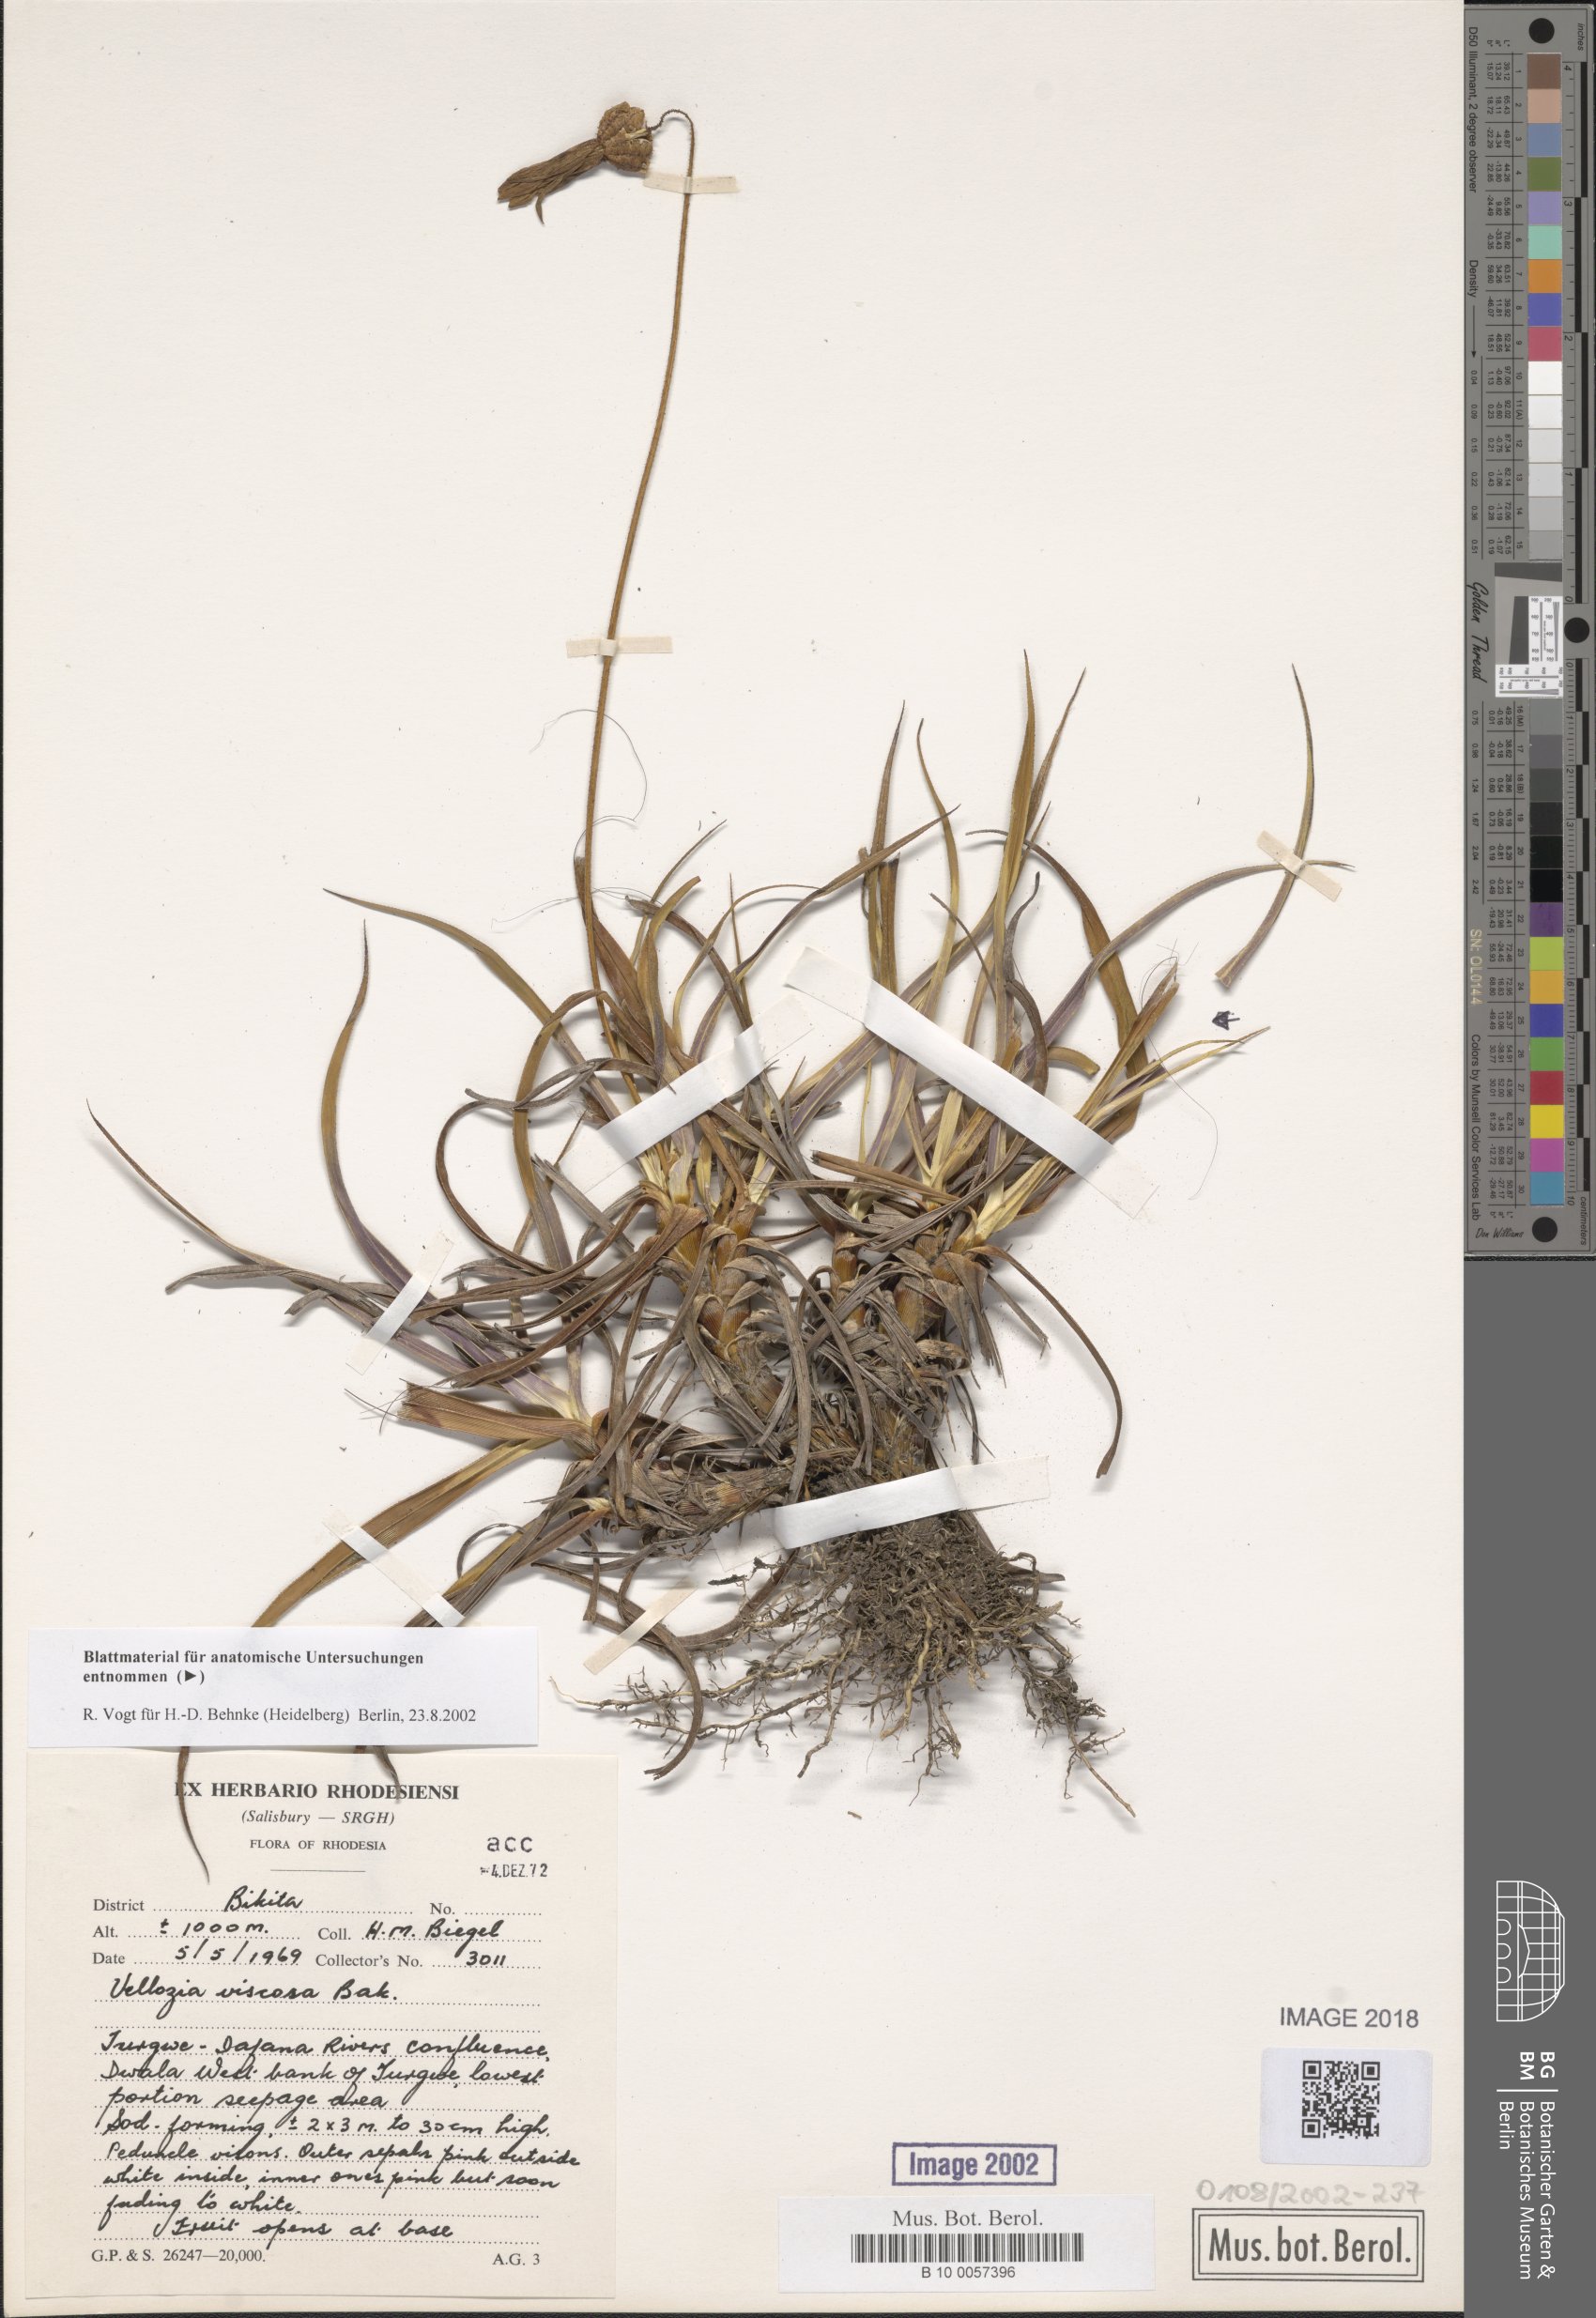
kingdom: Plantae
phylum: Tracheophyta
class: Liliopsida
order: Pandanales
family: Velloziaceae
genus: Xerophyta
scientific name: Xerophyta viscosa
